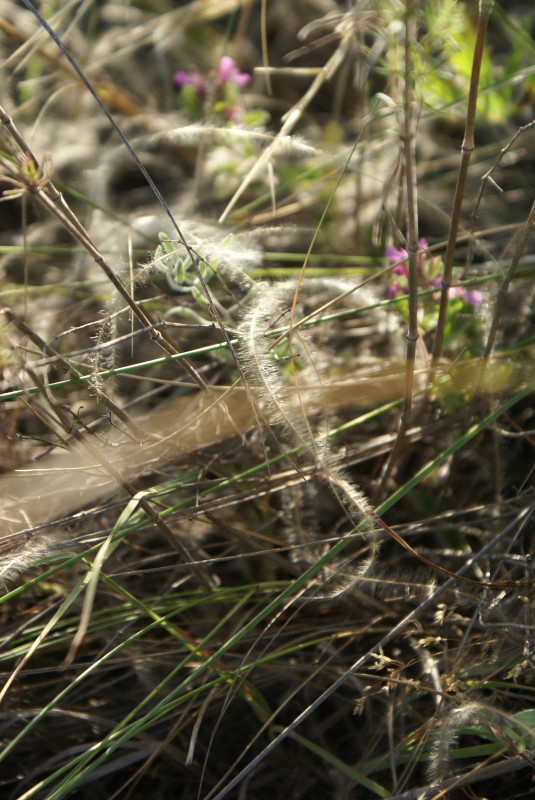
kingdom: Plantae
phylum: Tracheophyta
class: Liliopsida
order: Poales
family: Poaceae
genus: Stipa
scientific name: Stipa
